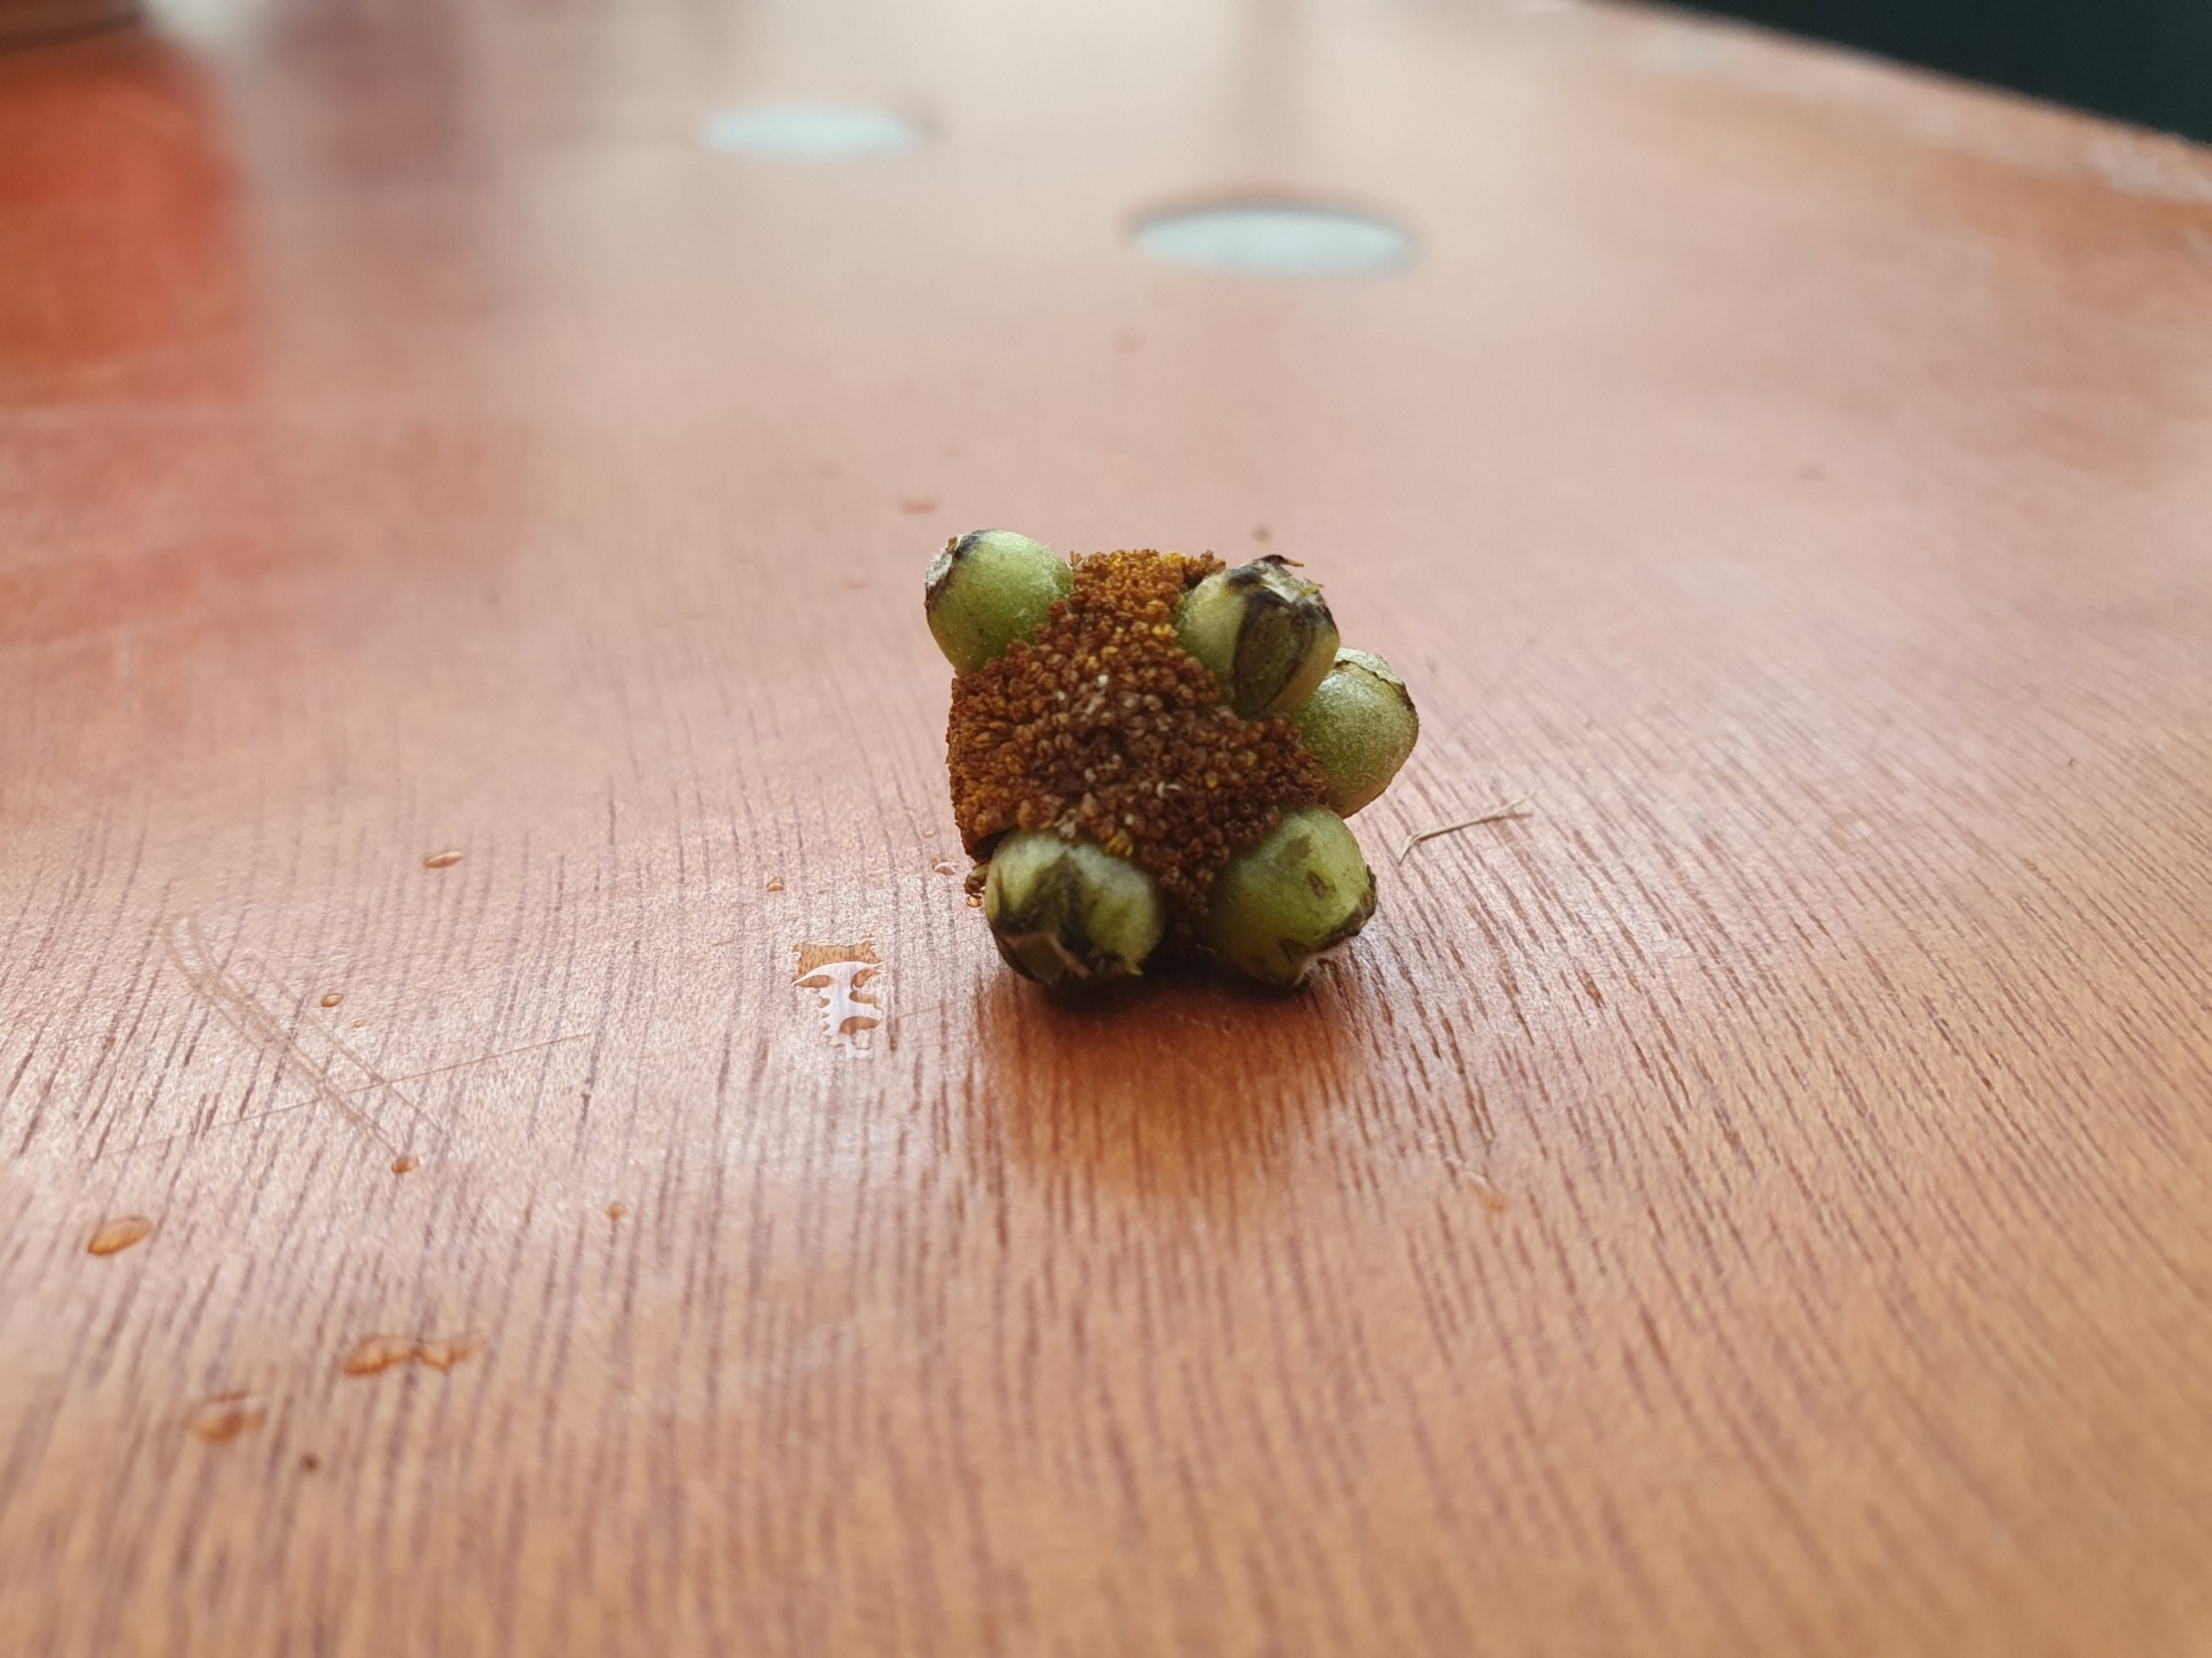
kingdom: Animalia
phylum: Arthropoda
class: Insecta
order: Diptera
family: Cecidomyiidae
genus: Rhopalomyia
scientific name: Rhopalomyia tanaceticolus
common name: Rejnfangalmyg
